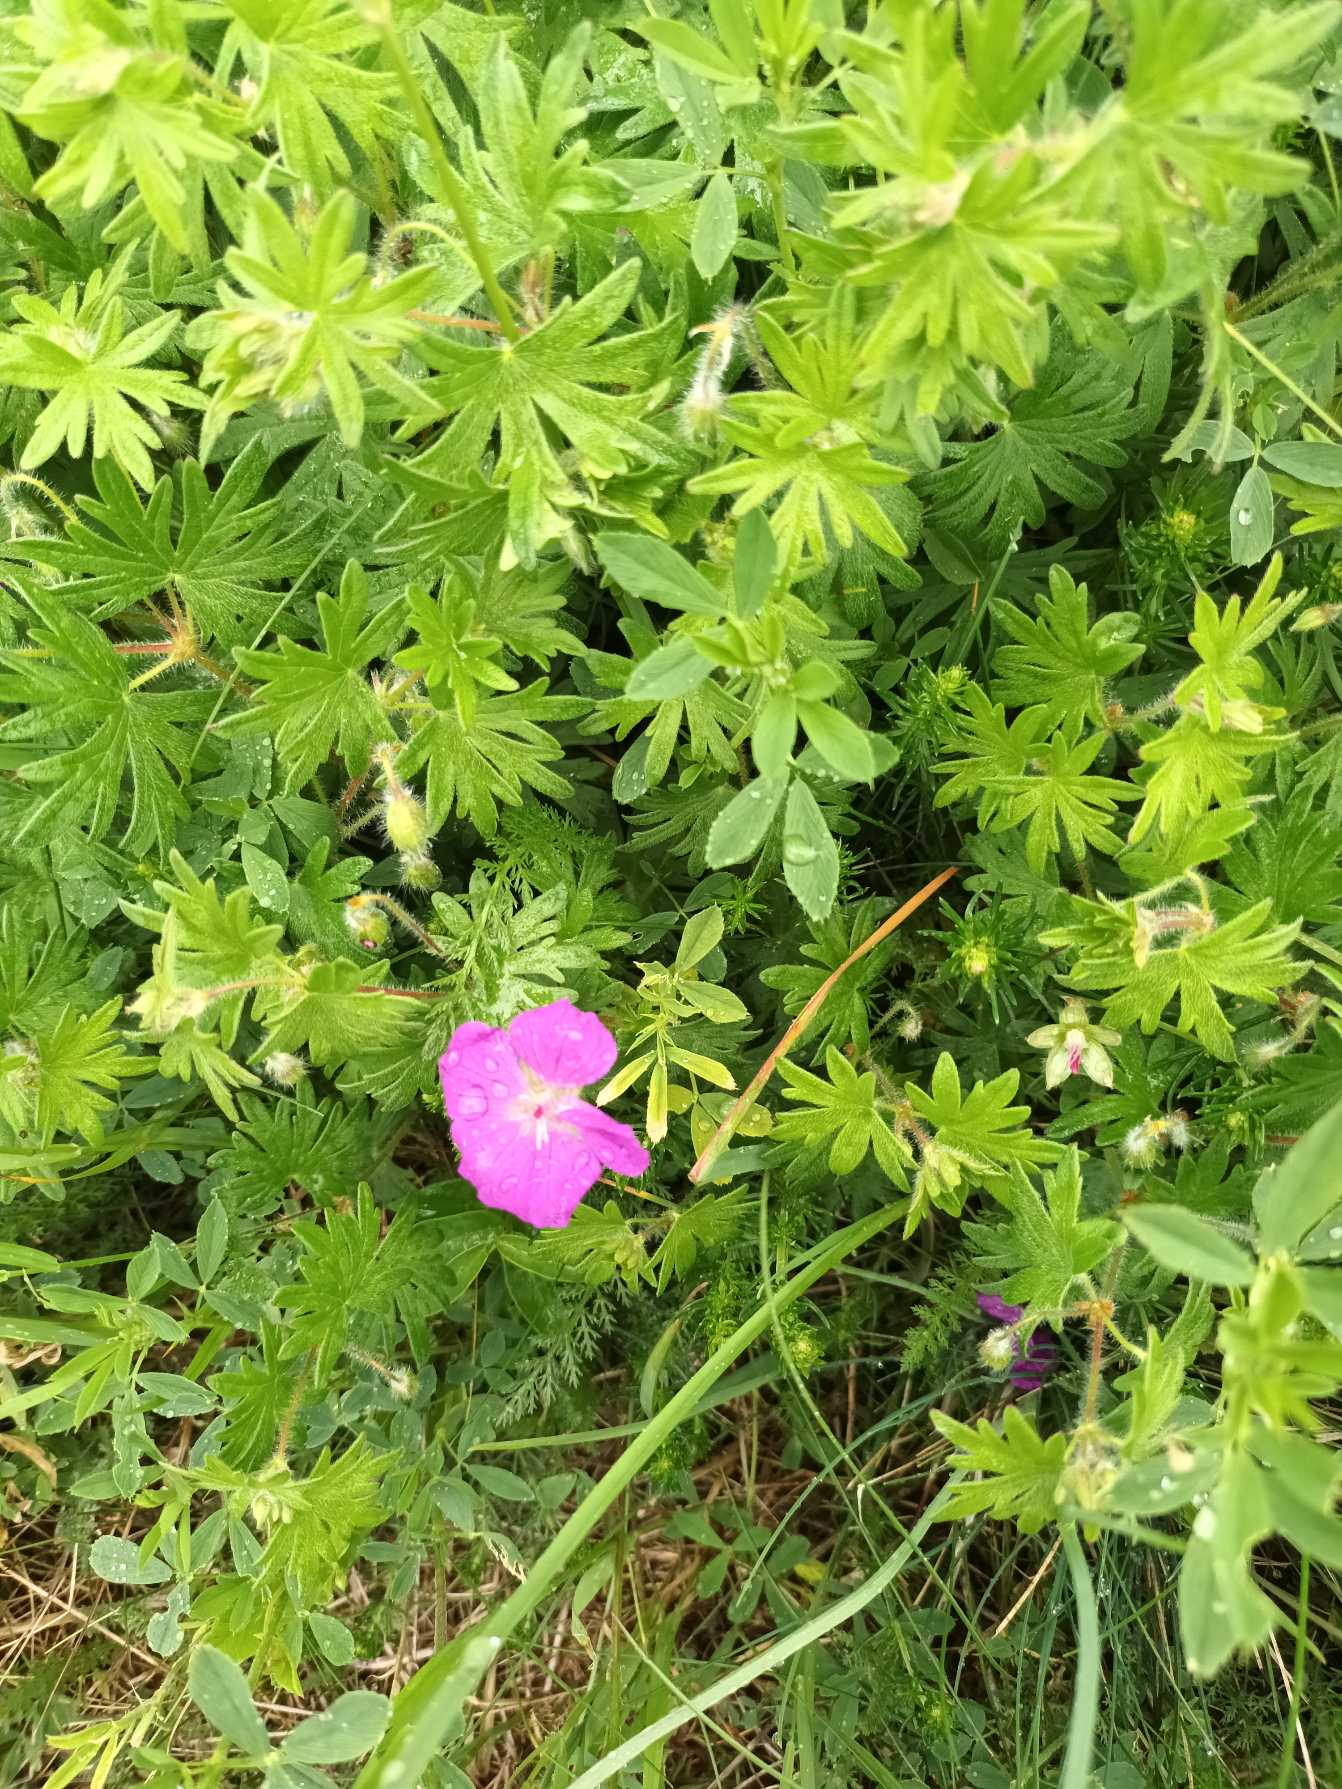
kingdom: Plantae
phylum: Tracheophyta
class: Magnoliopsida
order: Geraniales
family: Geraniaceae
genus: Geranium
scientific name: Geranium sanguineum
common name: Blodrød storkenæb
